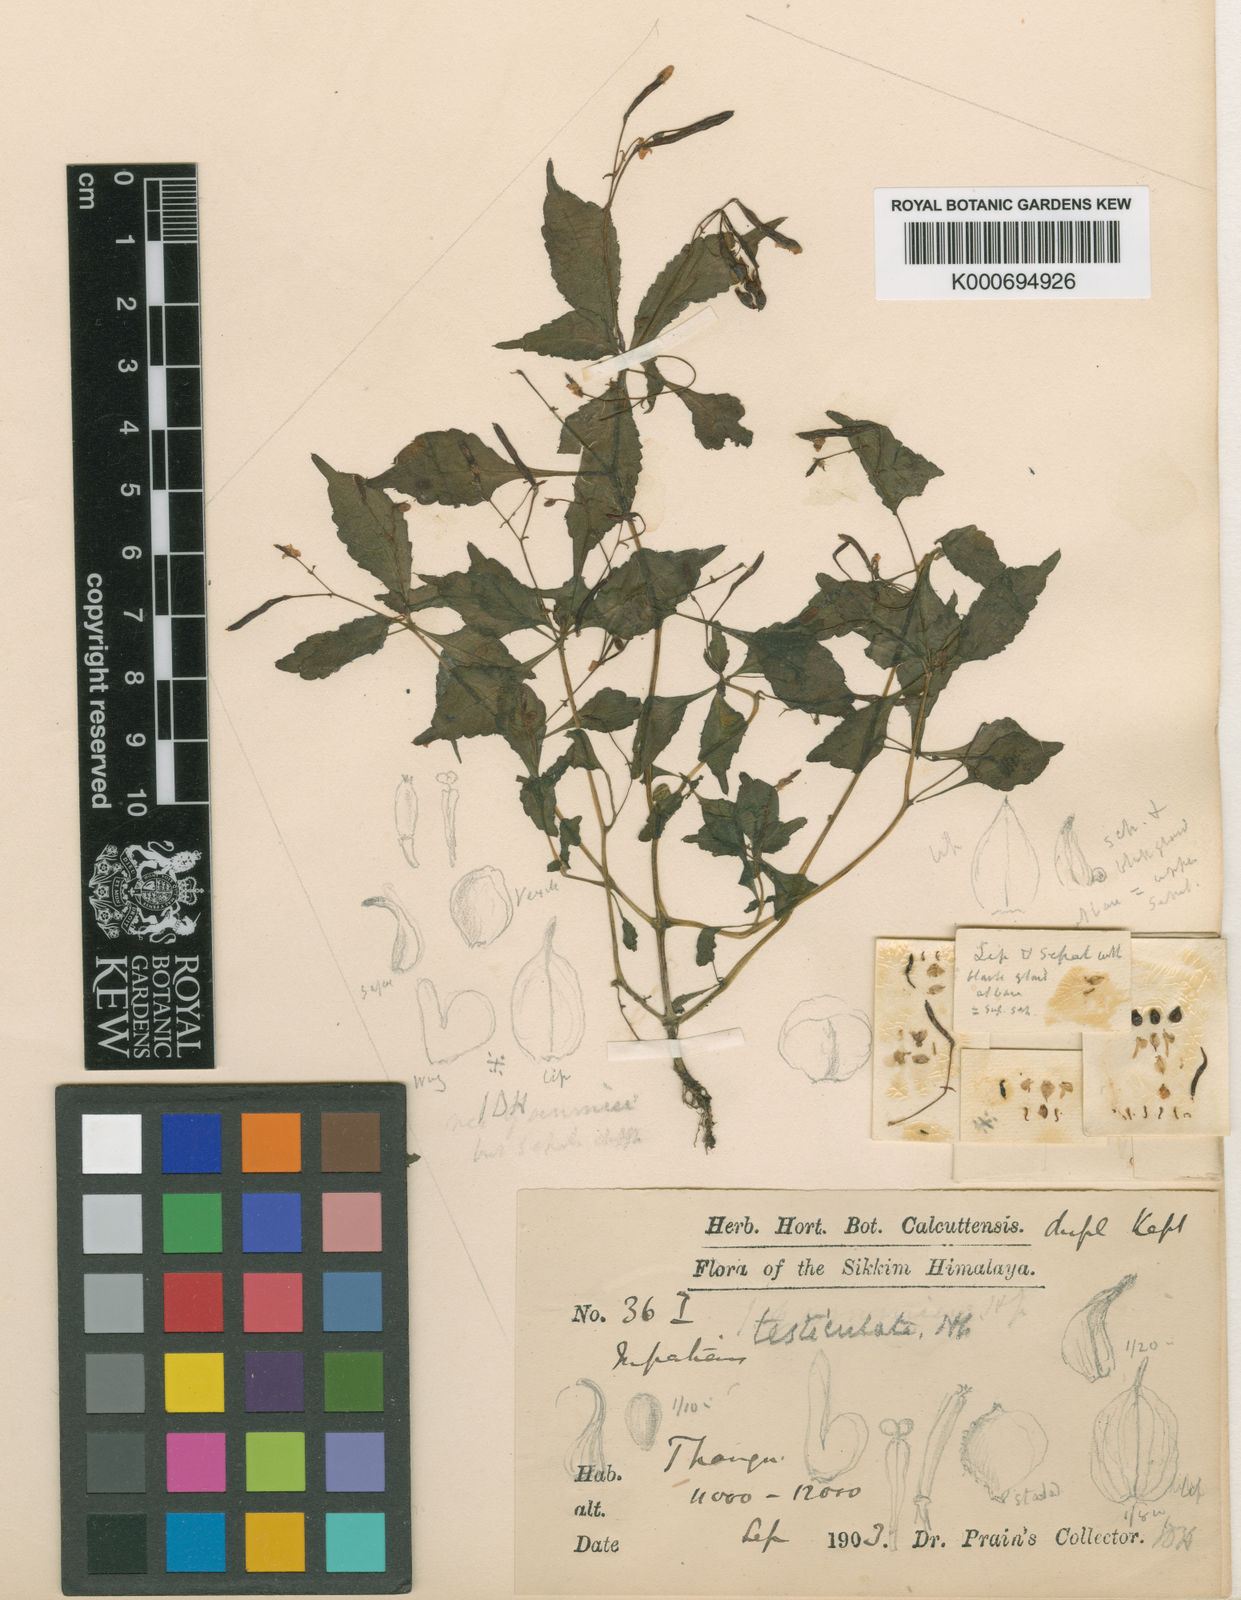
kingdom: Plantae
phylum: Tracheophyta
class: Magnoliopsida
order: Ericales
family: Balsaminaceae
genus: Impatiens
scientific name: Impatiens
